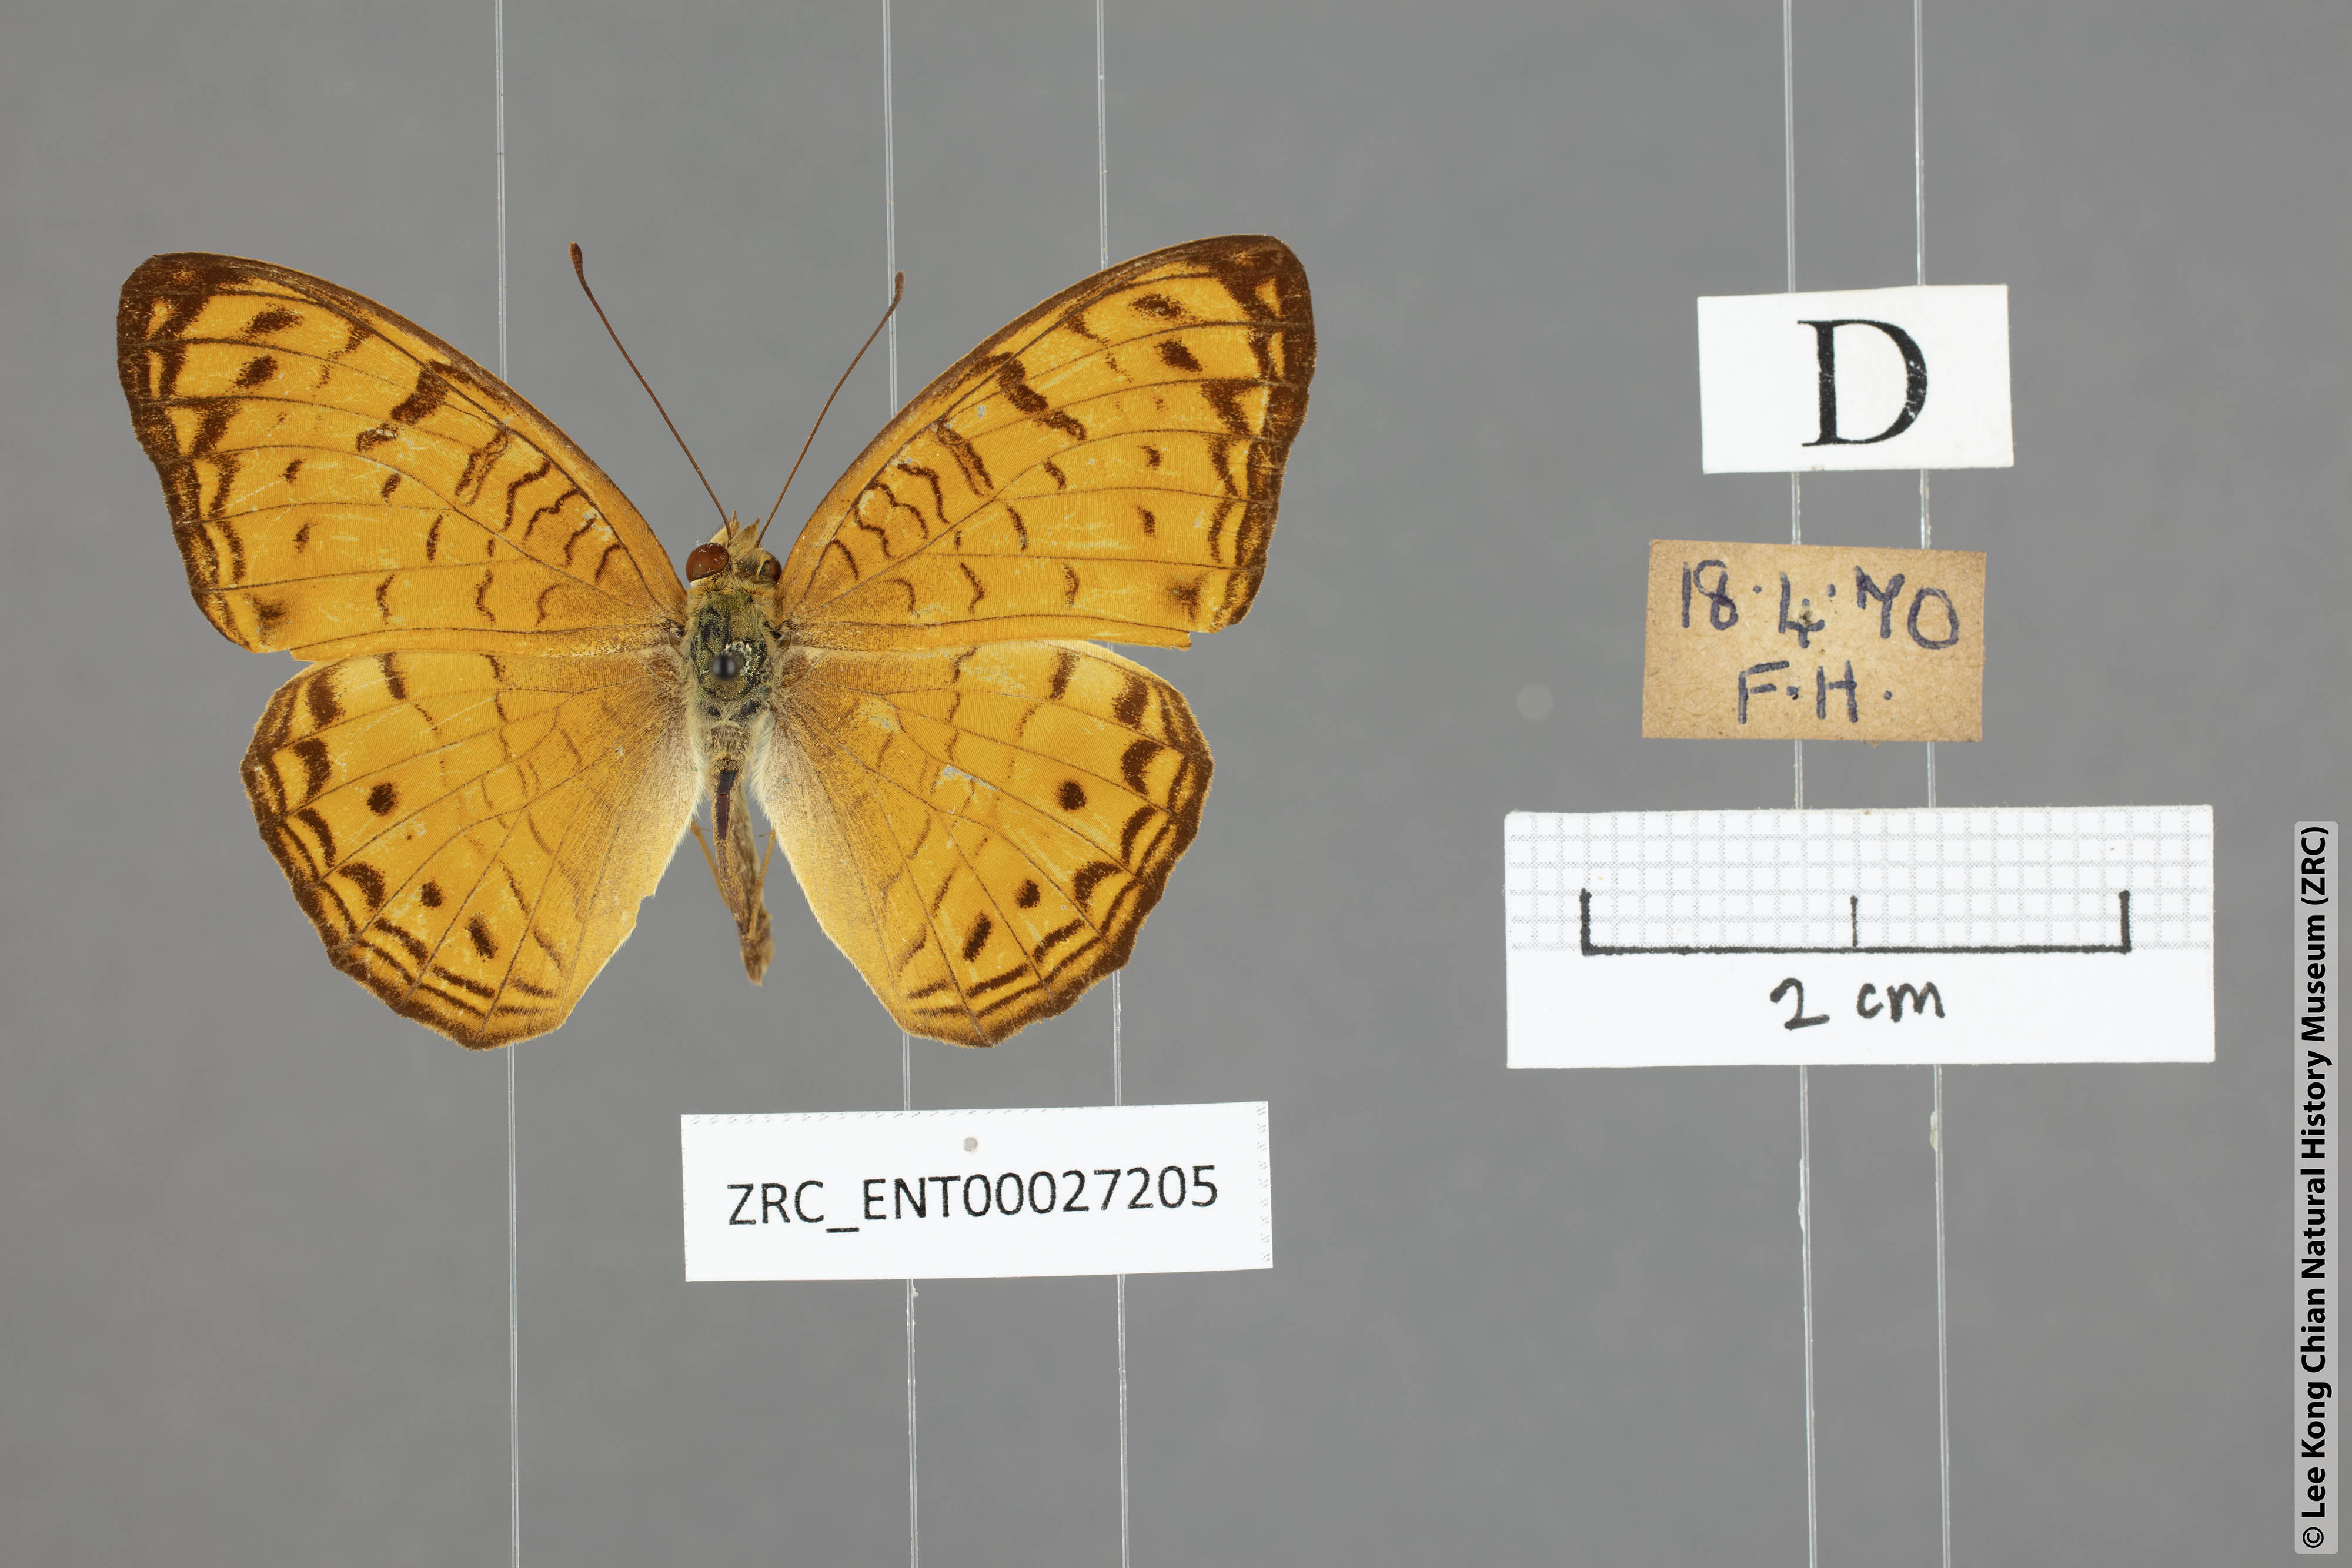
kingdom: Animalia
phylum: Arthropoda
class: Insecta
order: Lepidoptera
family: Nymphalidae
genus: Phalanta
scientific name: Phalanta alcippe
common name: Small leopard
